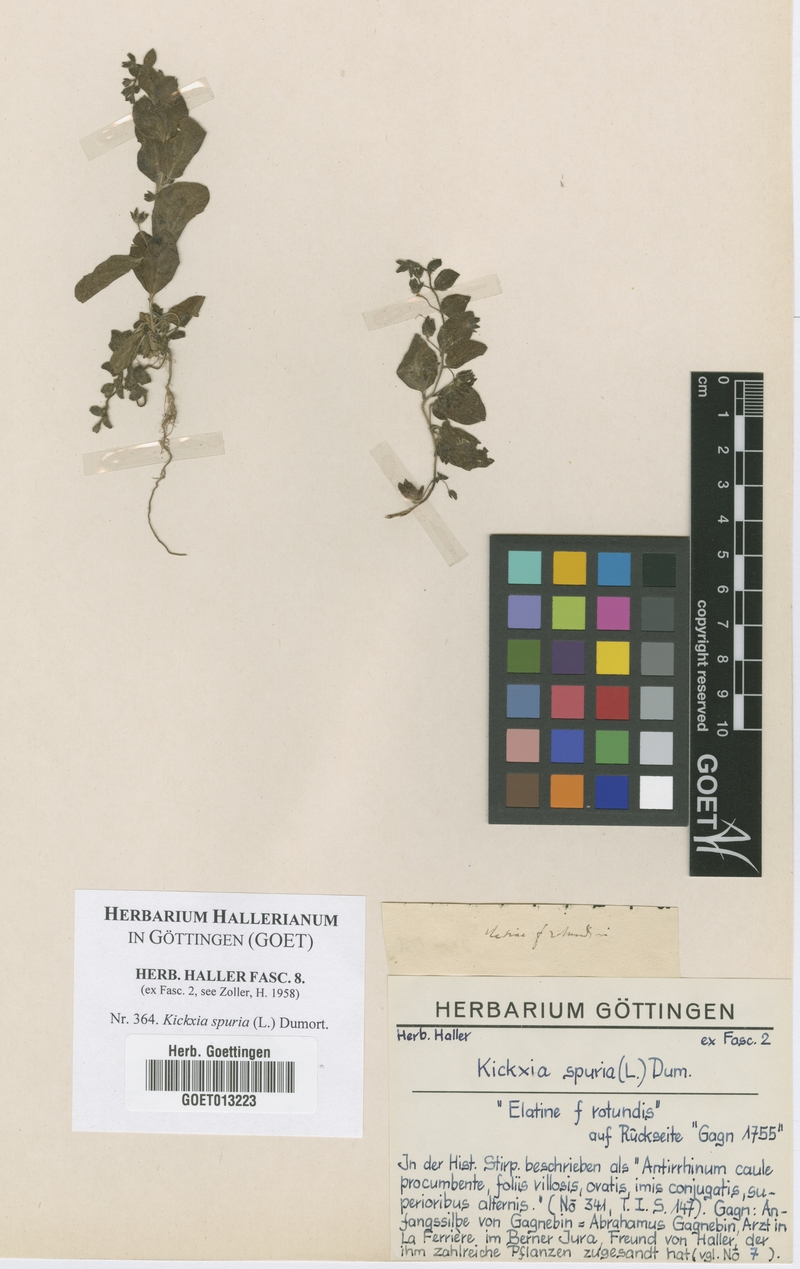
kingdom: Plantae
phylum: Tracheophyta
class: Magnoliopsida
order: Lamiales
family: Plantaginaceae
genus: Kickxia
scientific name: Kickxia spuria
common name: Round-leaved fluellen
